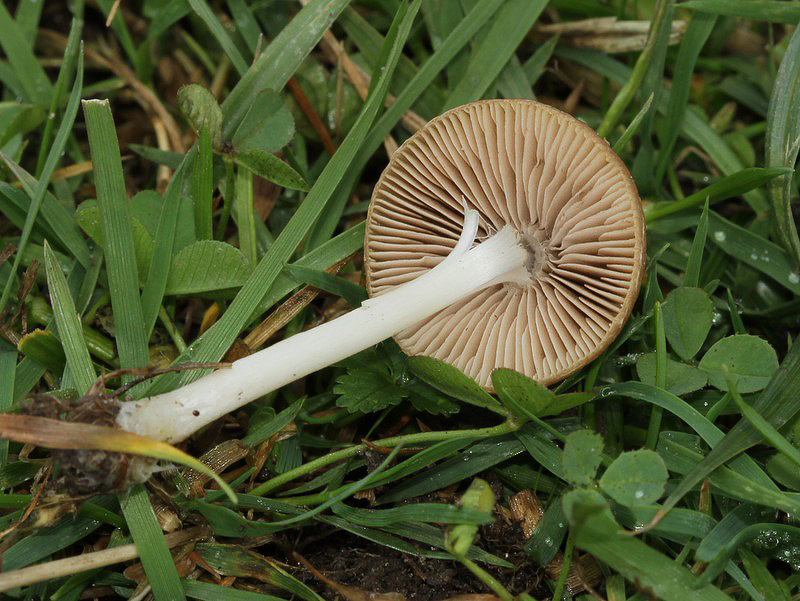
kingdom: Fungi
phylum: Basidiomycota
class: Agaricomycetes
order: Agaricales
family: Psathyrellaceae
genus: Psathyrella
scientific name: Psathyrella clivensis
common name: eng-mørkhat
